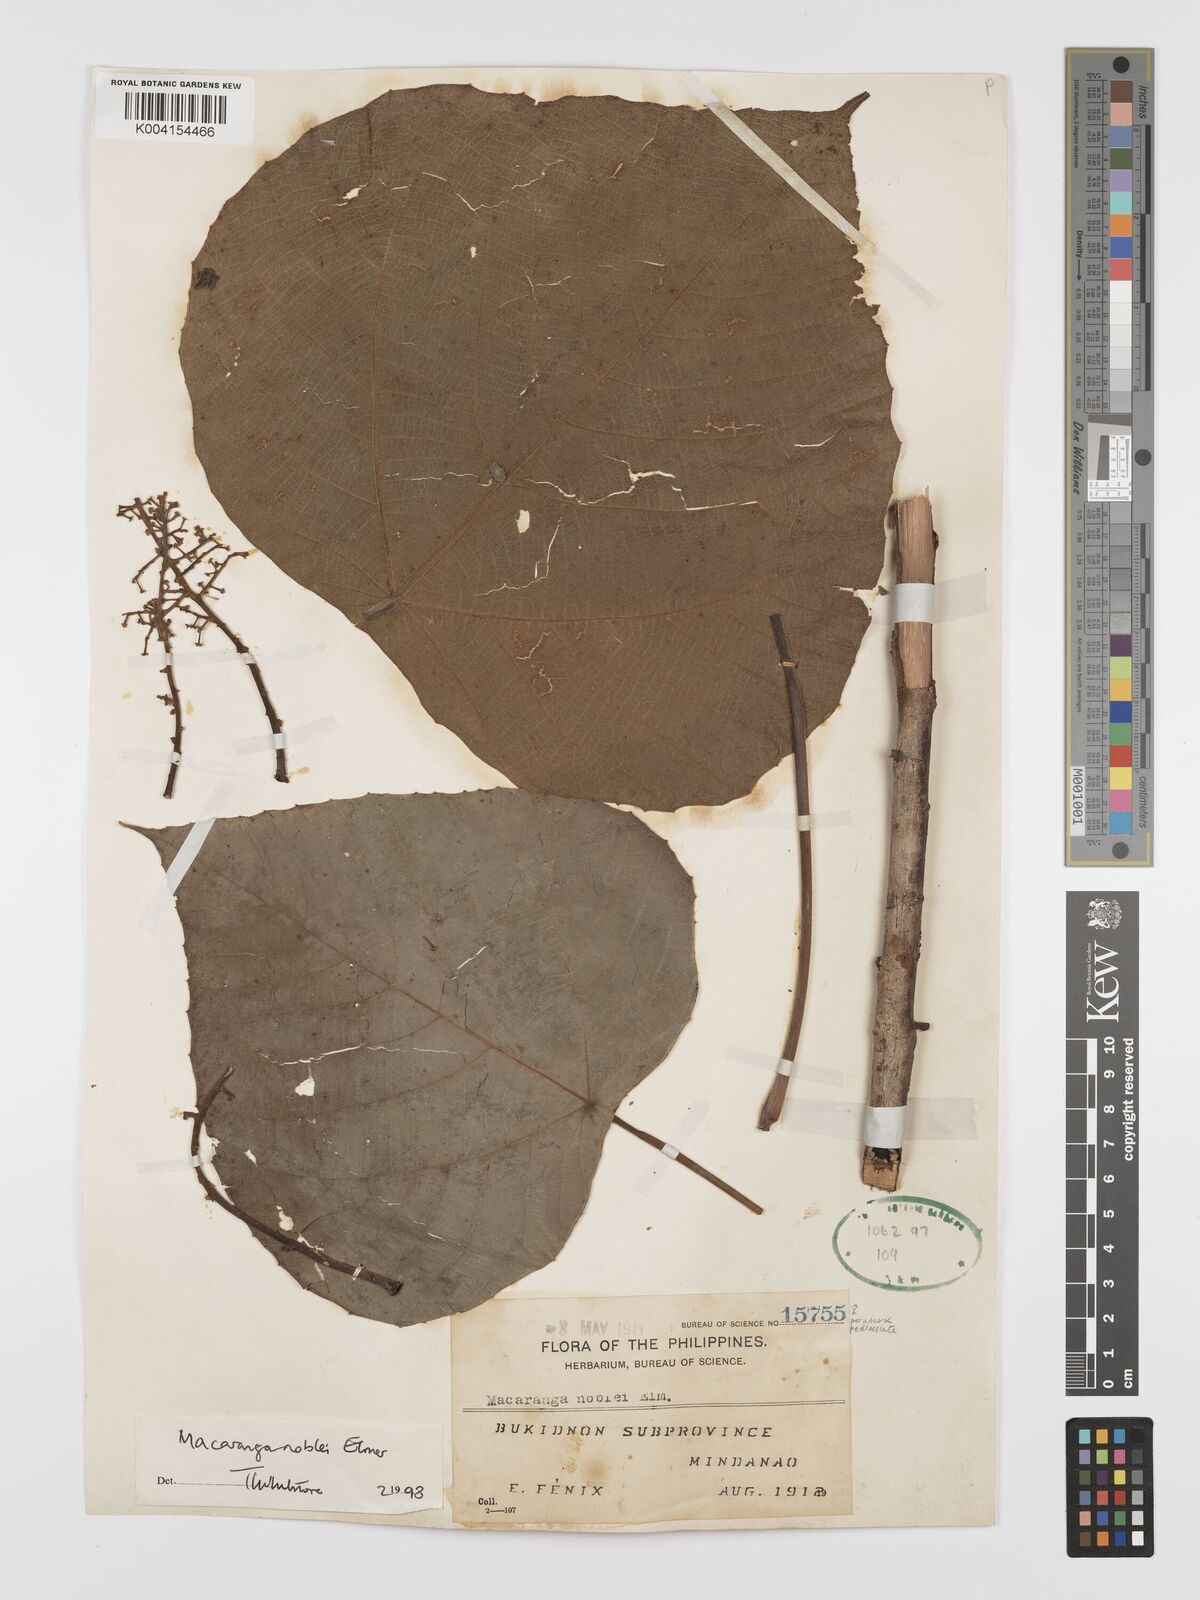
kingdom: Plantae
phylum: Tracheophyta
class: Magnoliopsida
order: Malpighiales
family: Euphorbiaceae
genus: Macaranga
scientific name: Macaranga noblei
